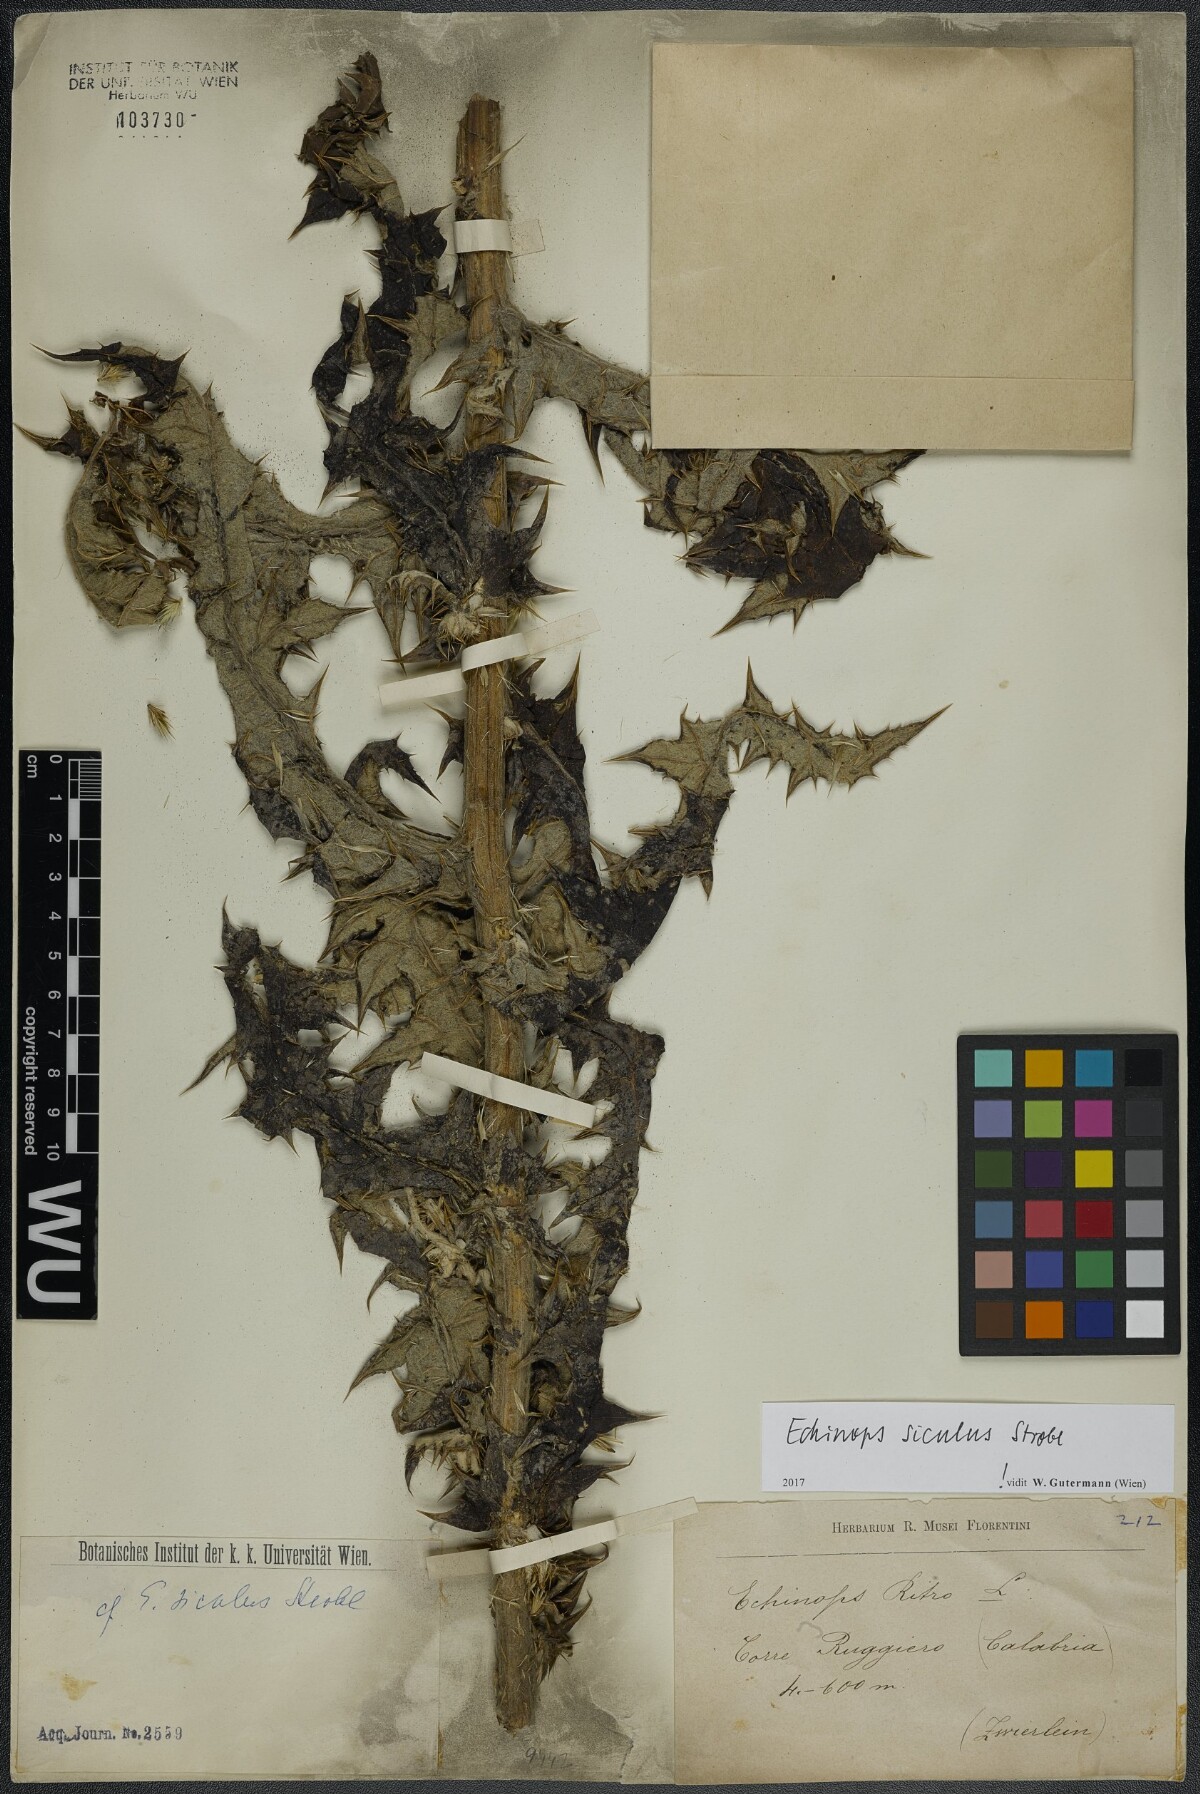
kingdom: Plantae
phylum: Tracheophyta
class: Magnoliopsida
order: Asterales
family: Asteraceae
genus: Echinops
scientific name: Echinops ritro
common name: Globe thistle
